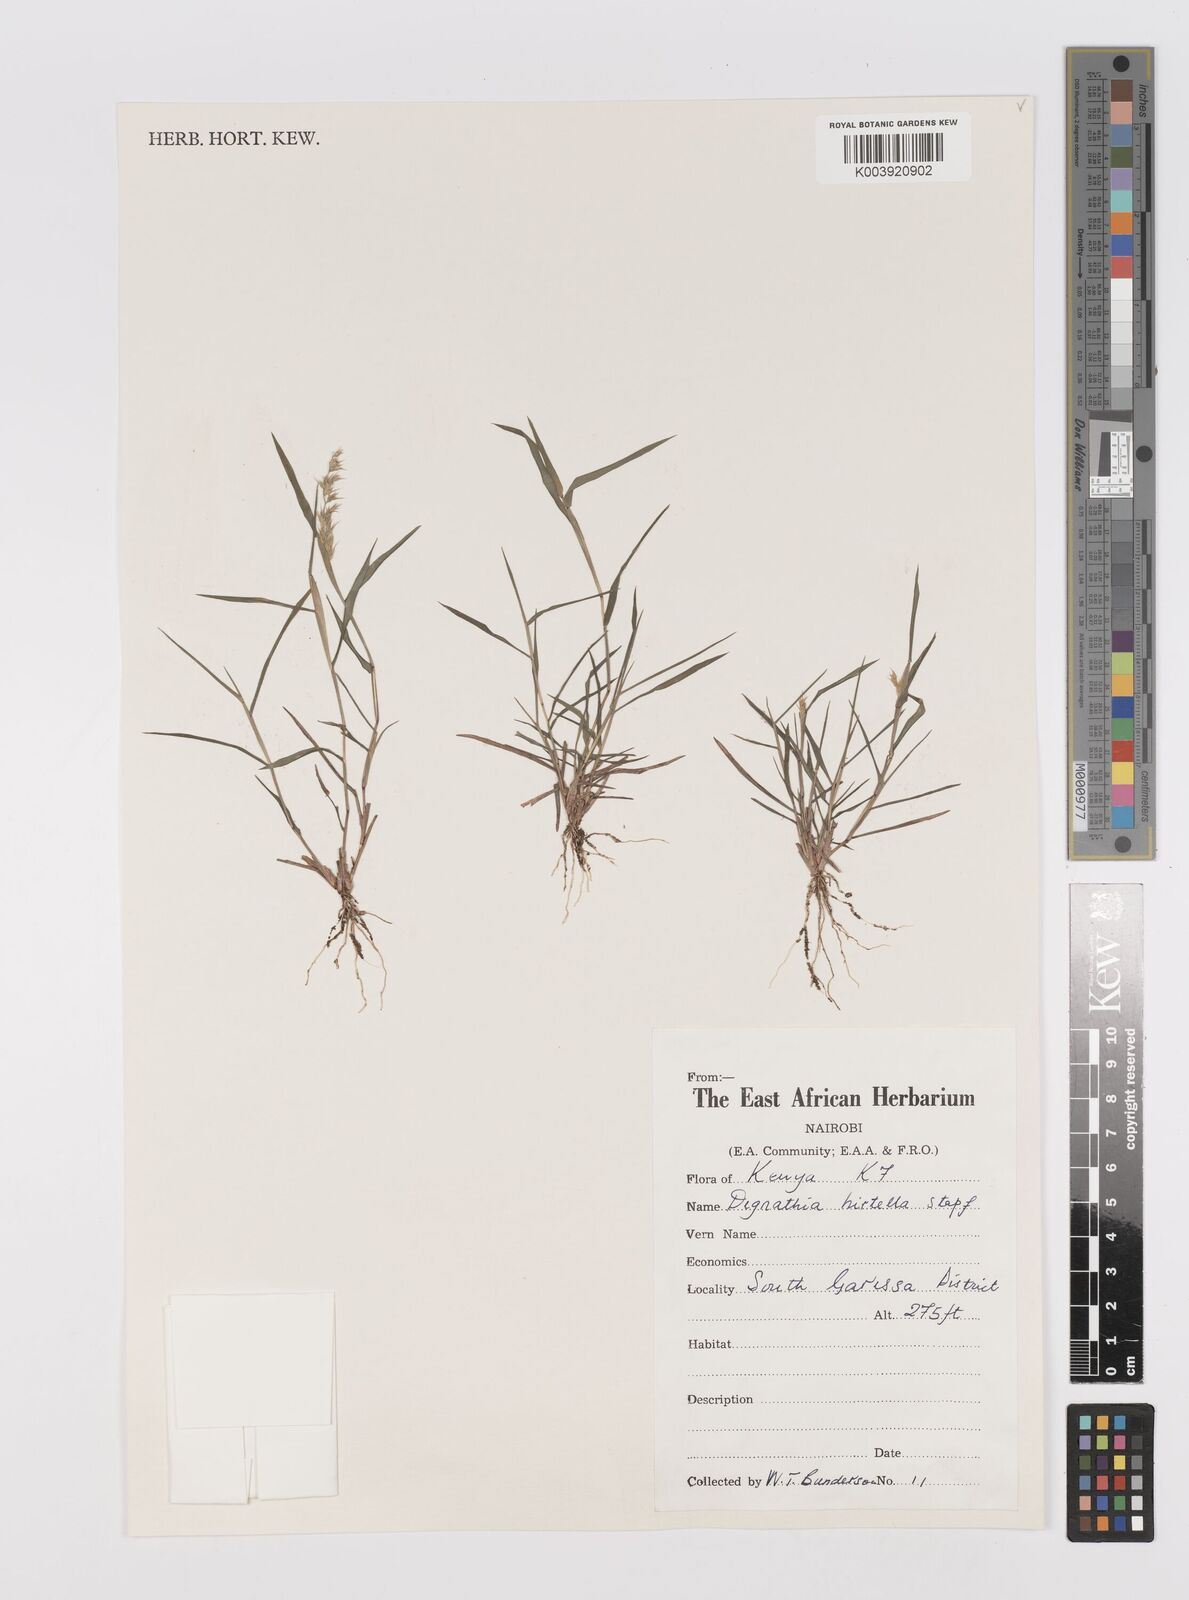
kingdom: Plantae
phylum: Tracheophyta
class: Liliopsida
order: Poales
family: Poaceae
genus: Dignathia
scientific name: Dignathia hirtella
